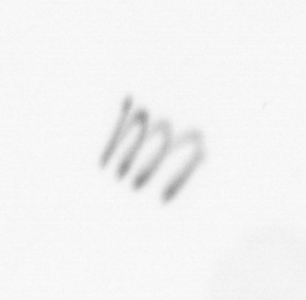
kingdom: Chromista
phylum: Ochrophyta
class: Bacillariophyceae
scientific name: Bacillariophyceae
